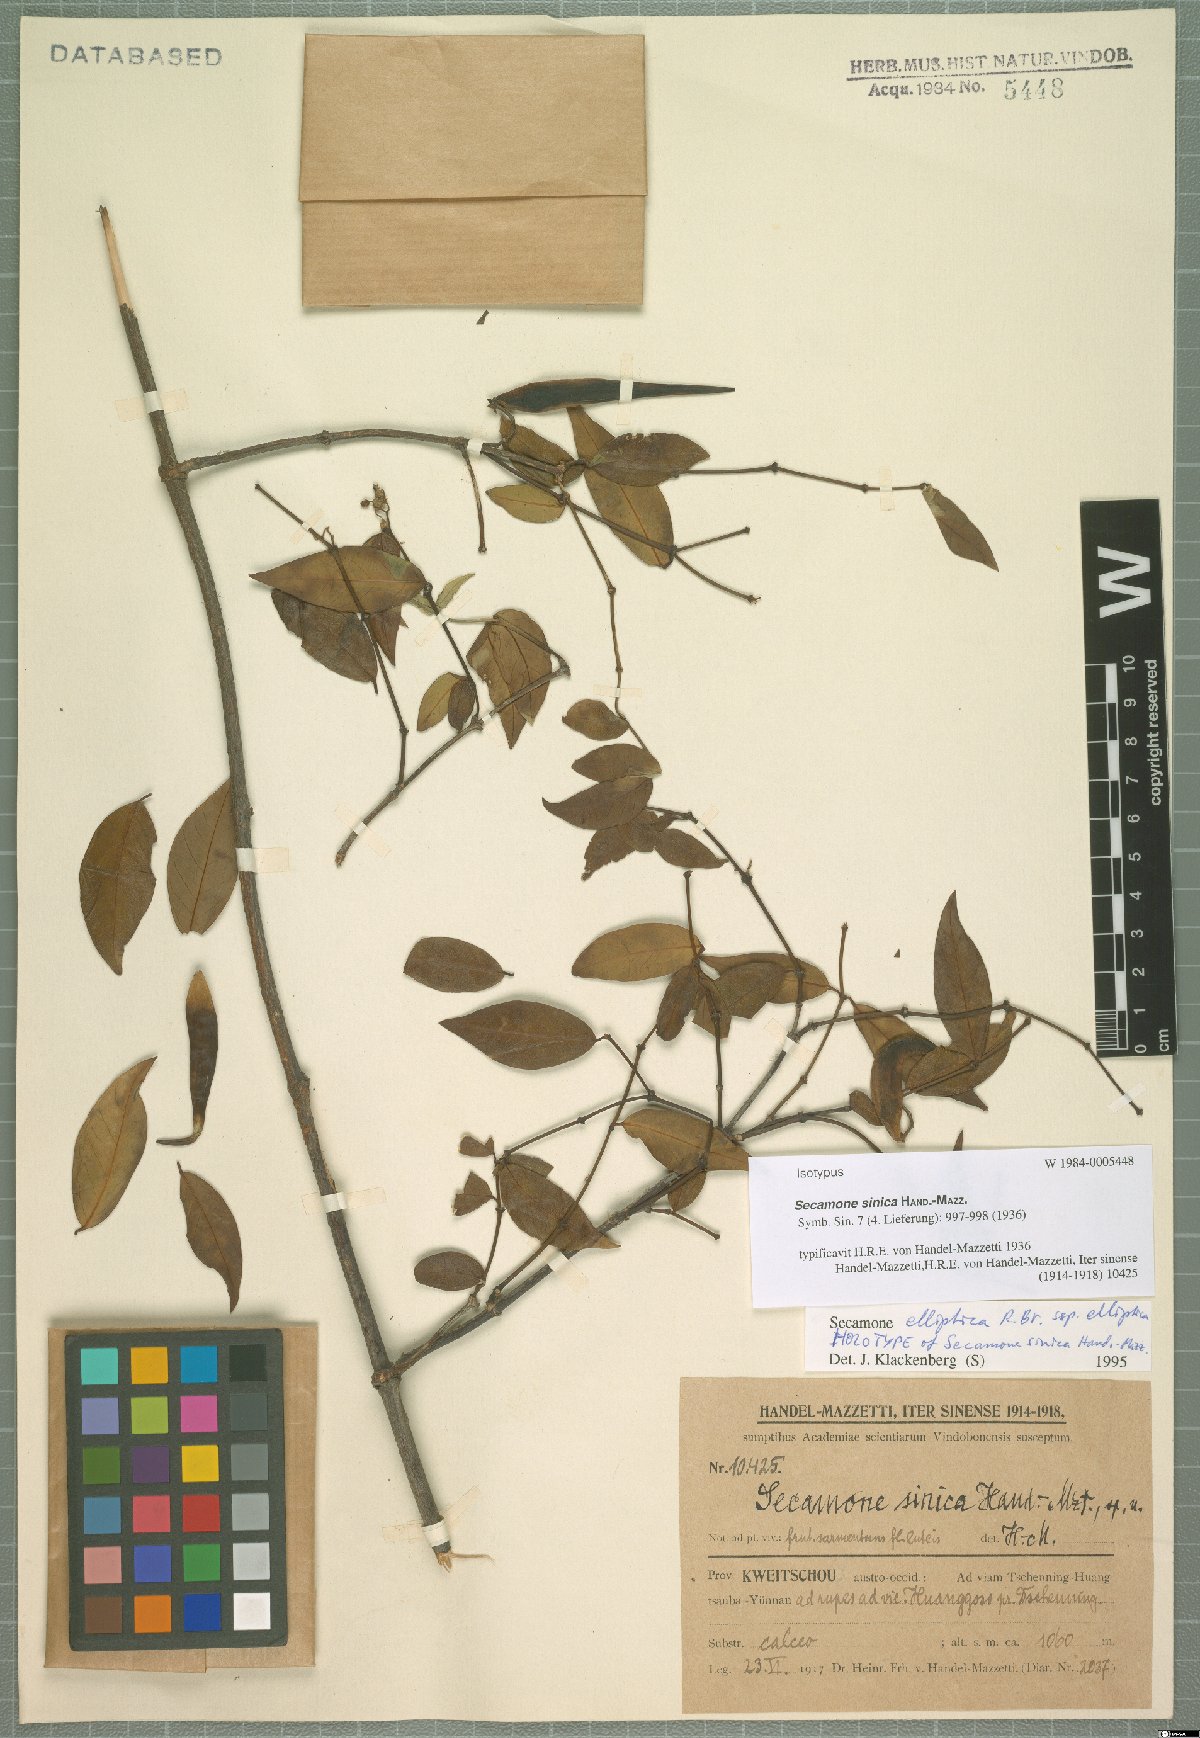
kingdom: Plantae
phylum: Tracheophyta
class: Magnoliopsida
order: Gentianales
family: Apocynaceae
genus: Secamone
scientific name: Secamone elliptica
